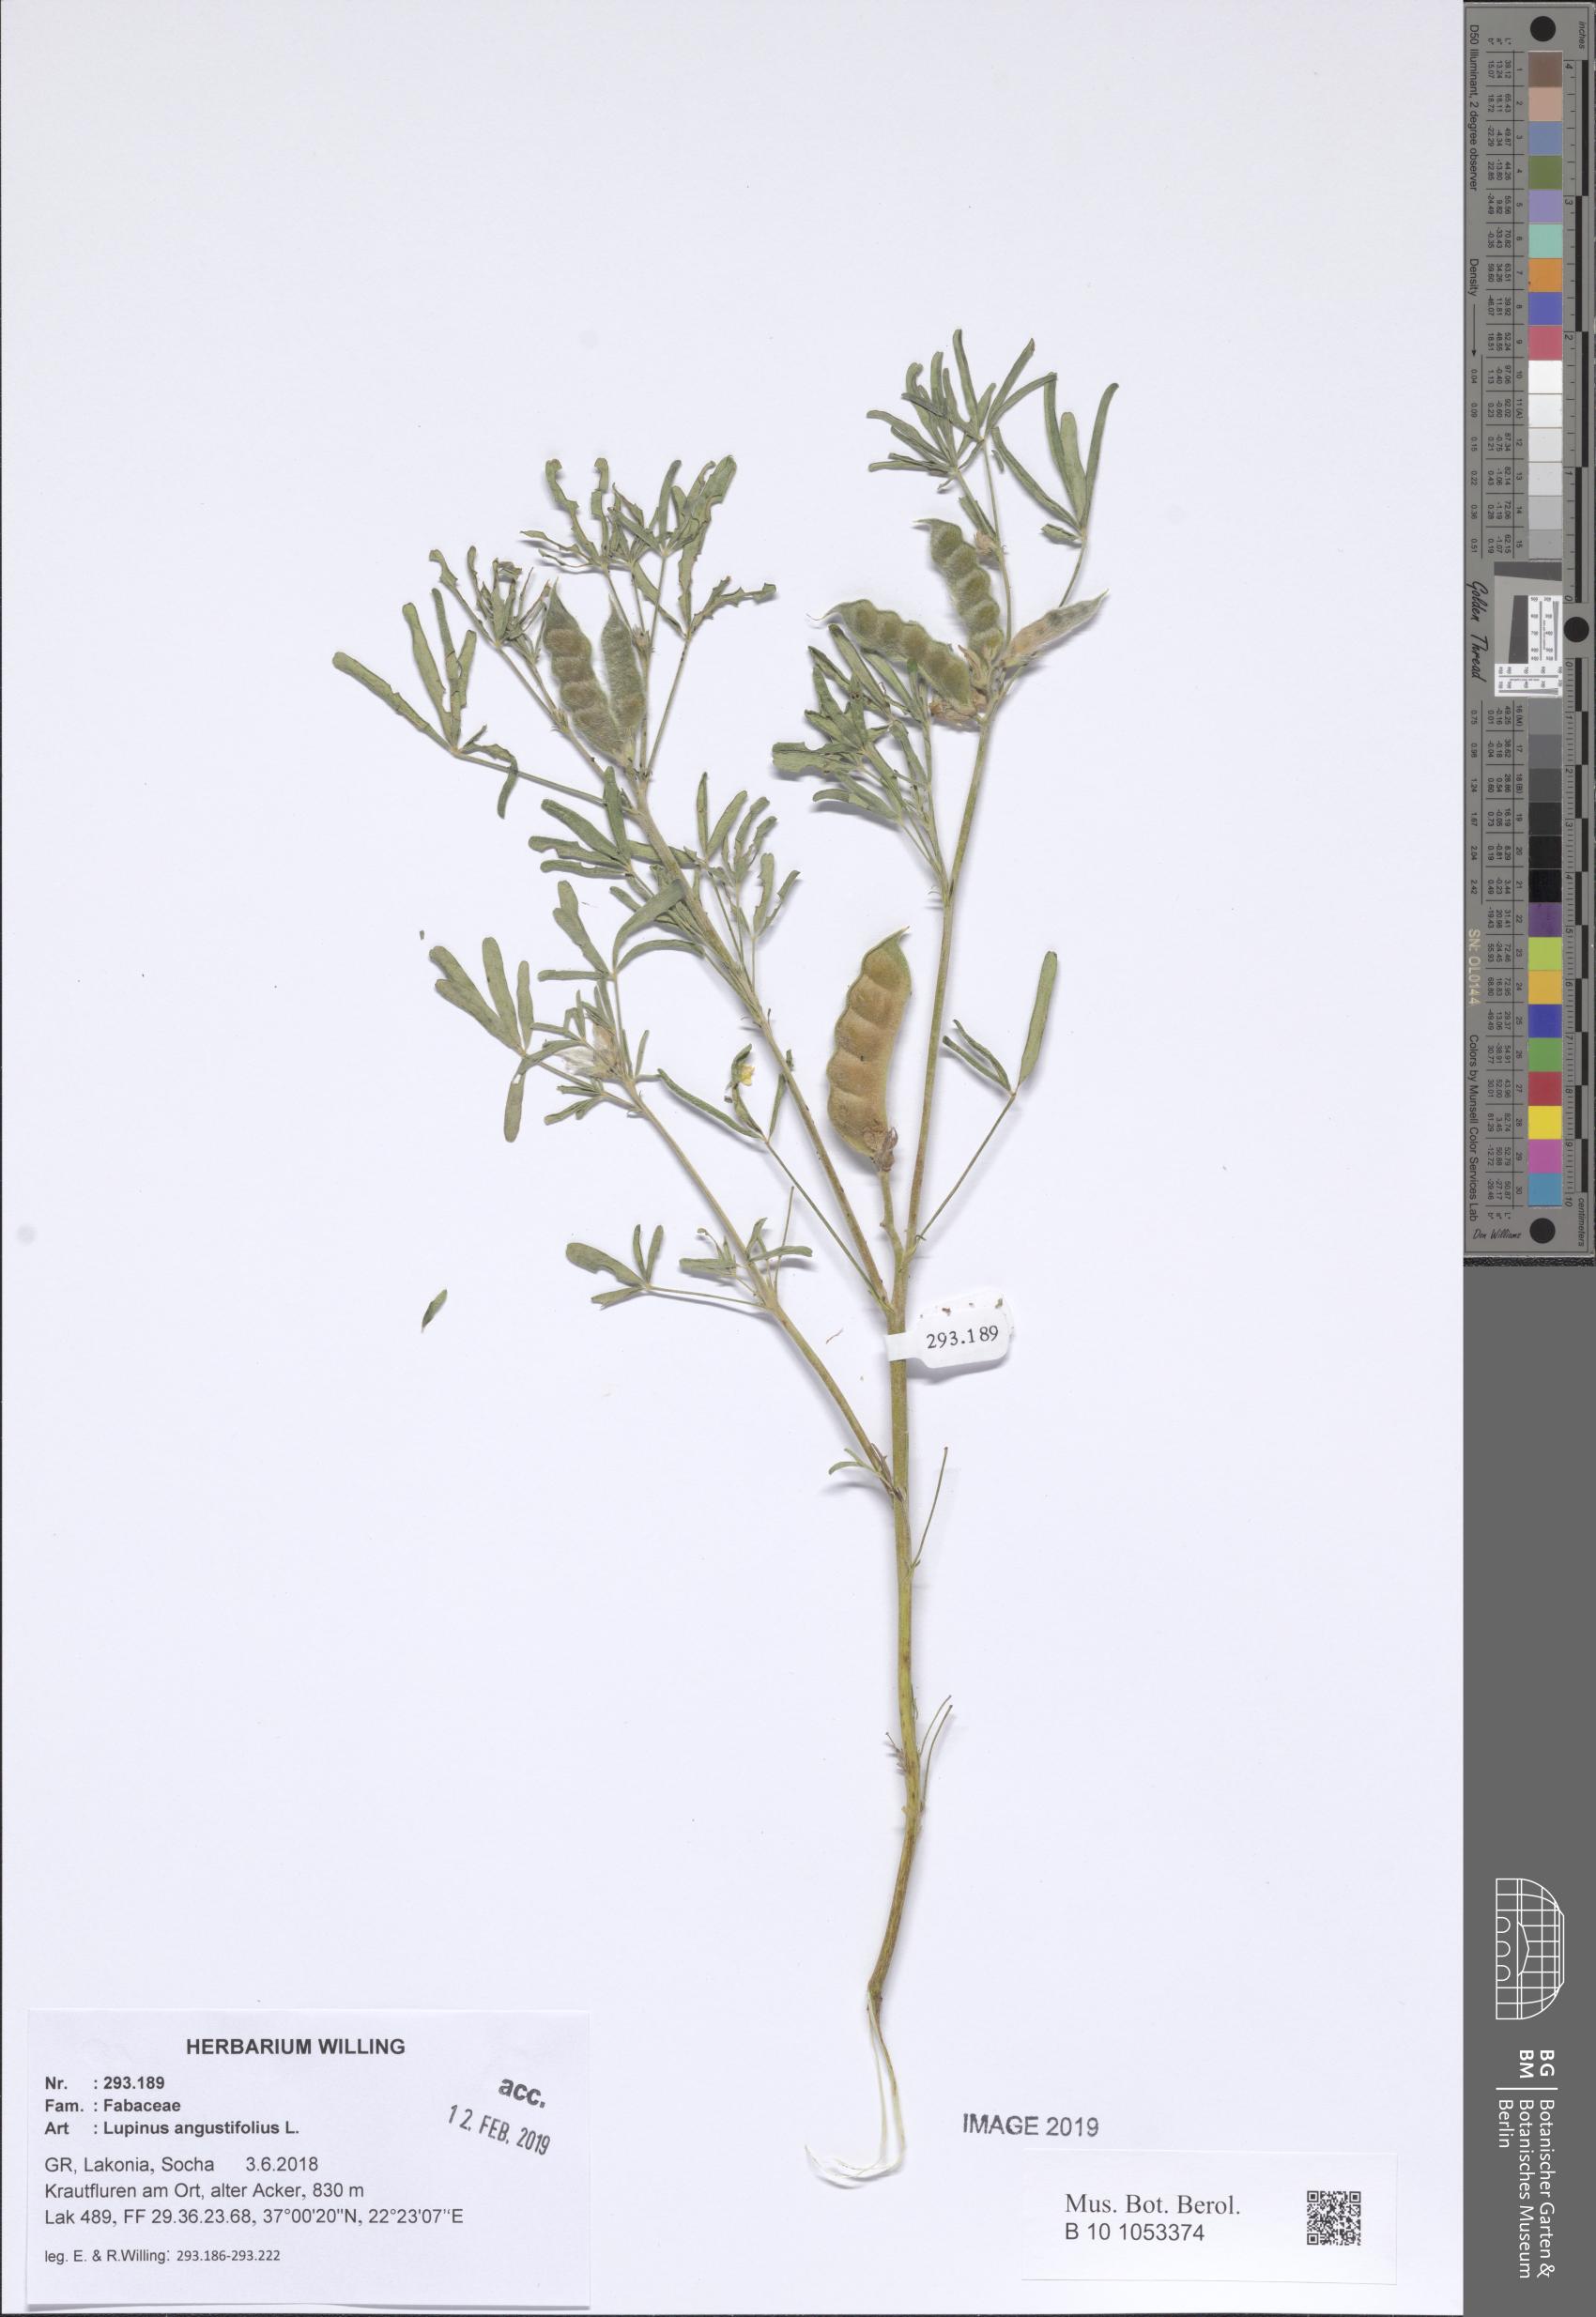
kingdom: Plantae
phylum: Tracheophyta
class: Magnoliopsida
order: Fabales
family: Fabaceae
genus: Lupinus
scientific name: Lupinus angustifolius
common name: Narrow-leaved lupin
